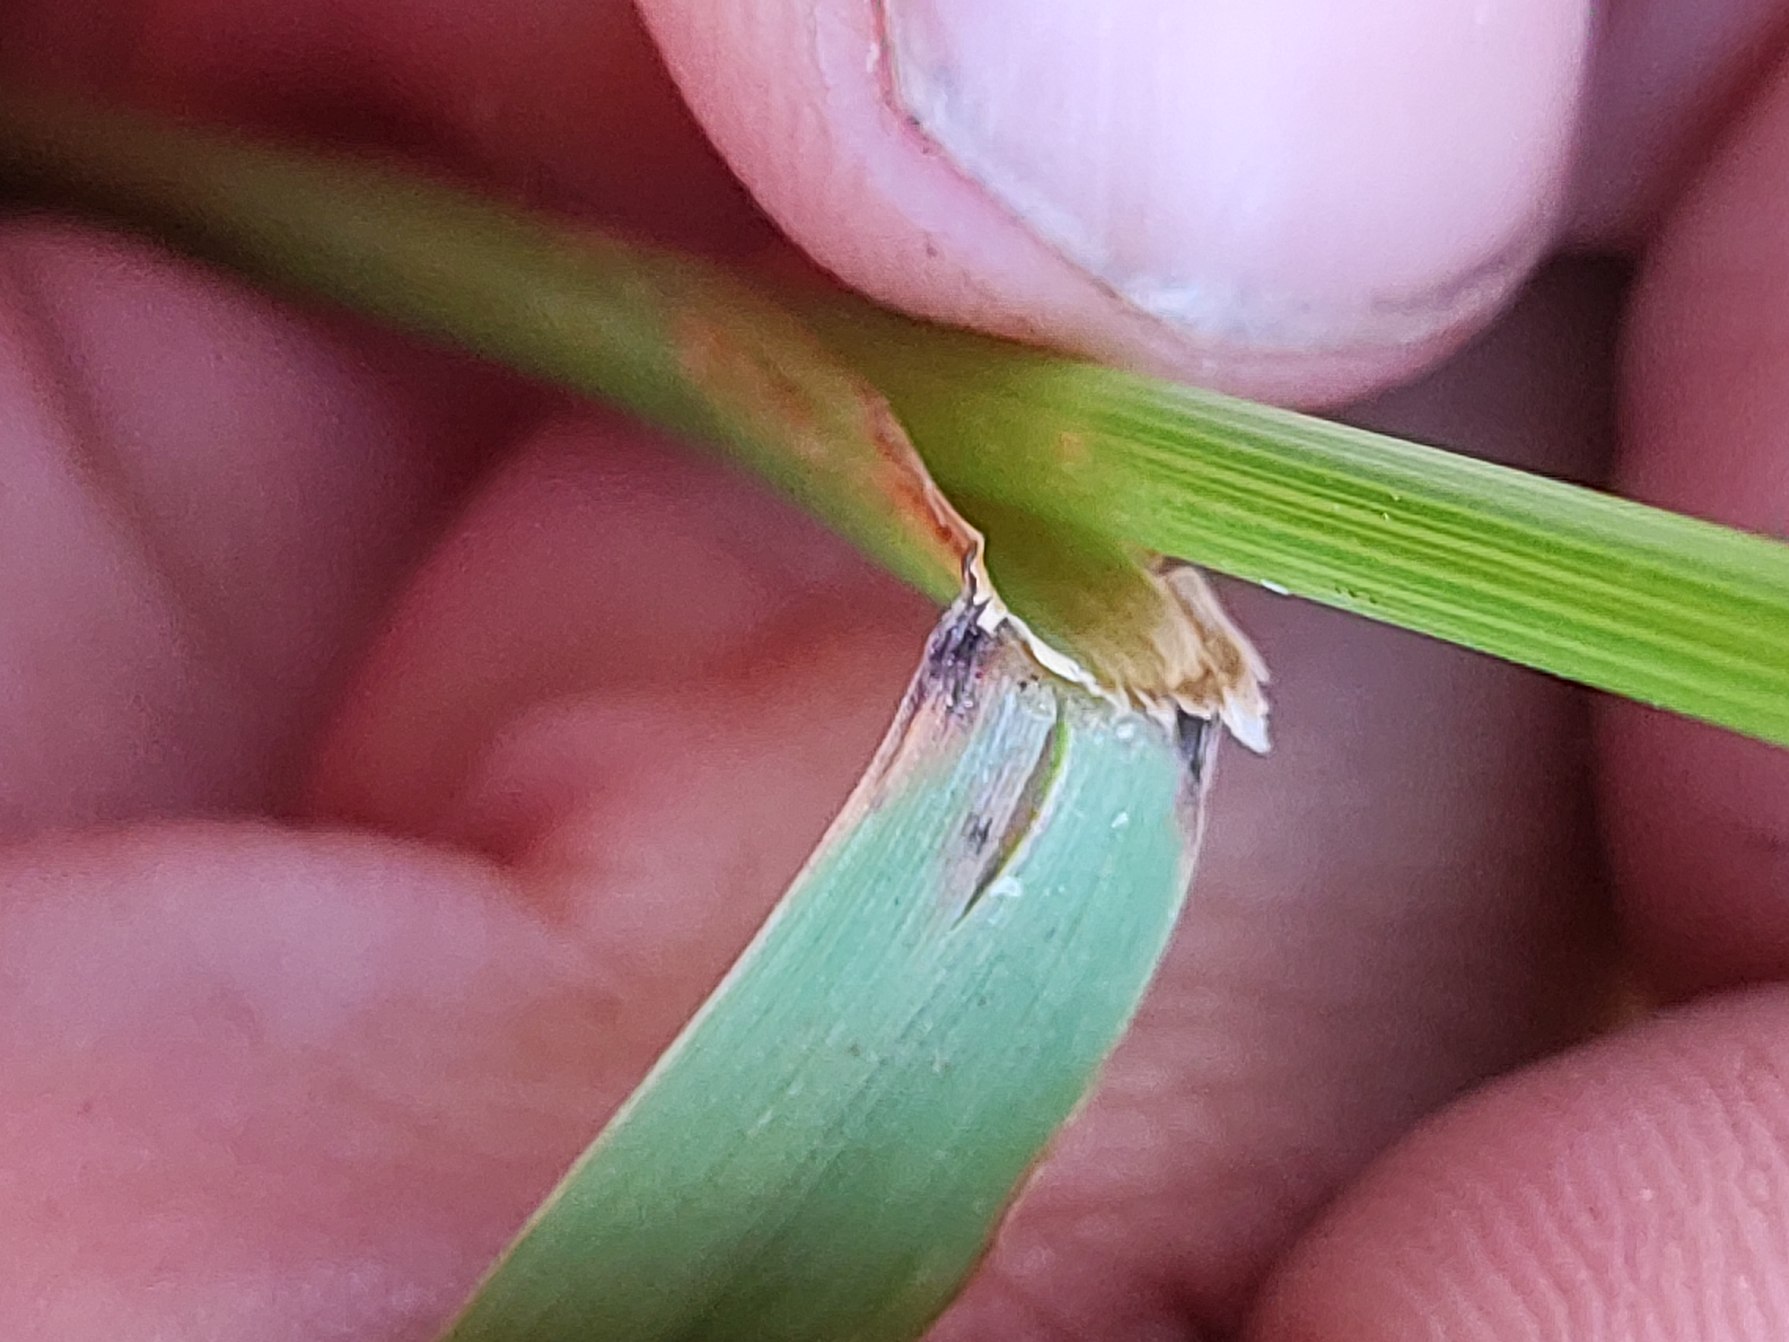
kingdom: Plantae
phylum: Tracheophyta
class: Liliopsida
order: Poales
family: Poaceae
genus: Arrhenatherum
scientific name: Arrhenatherum elatius
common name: Draphavre
